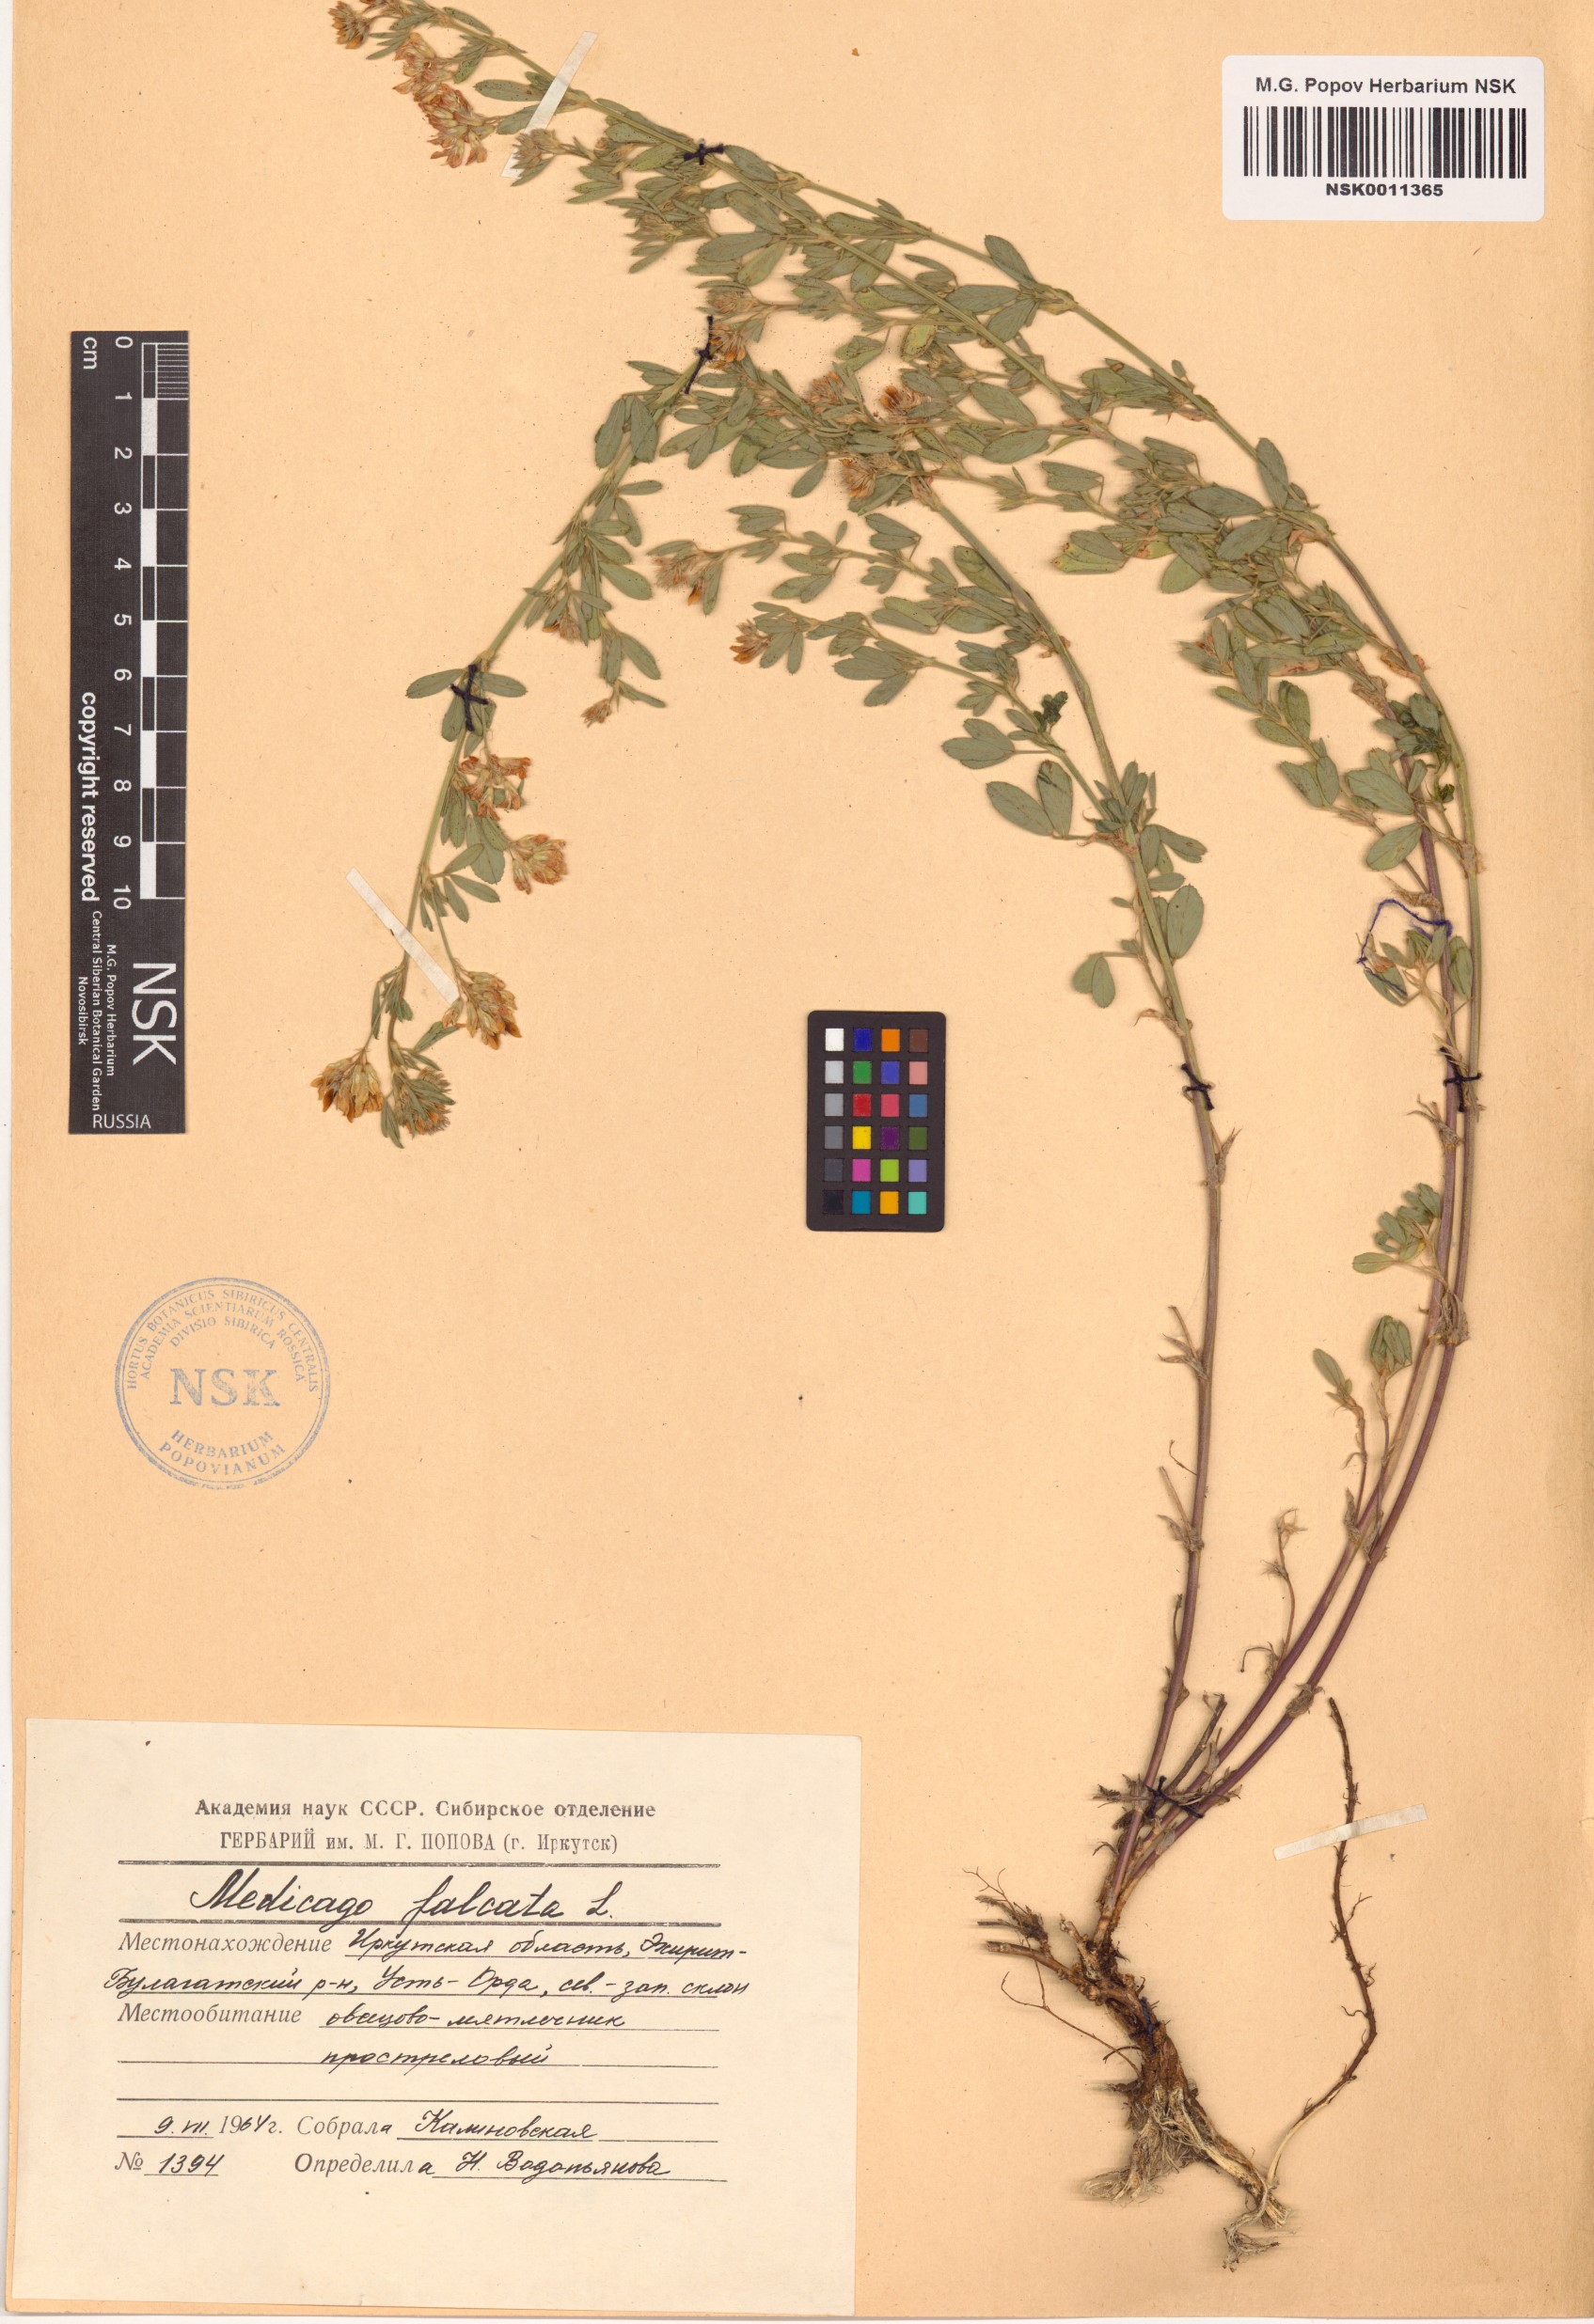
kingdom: Plantae
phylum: Tracheophyta
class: Magnoliopsida
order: Fabales
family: Fabaceae
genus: Medicago
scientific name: Medicago falcata
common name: Sickle medick
